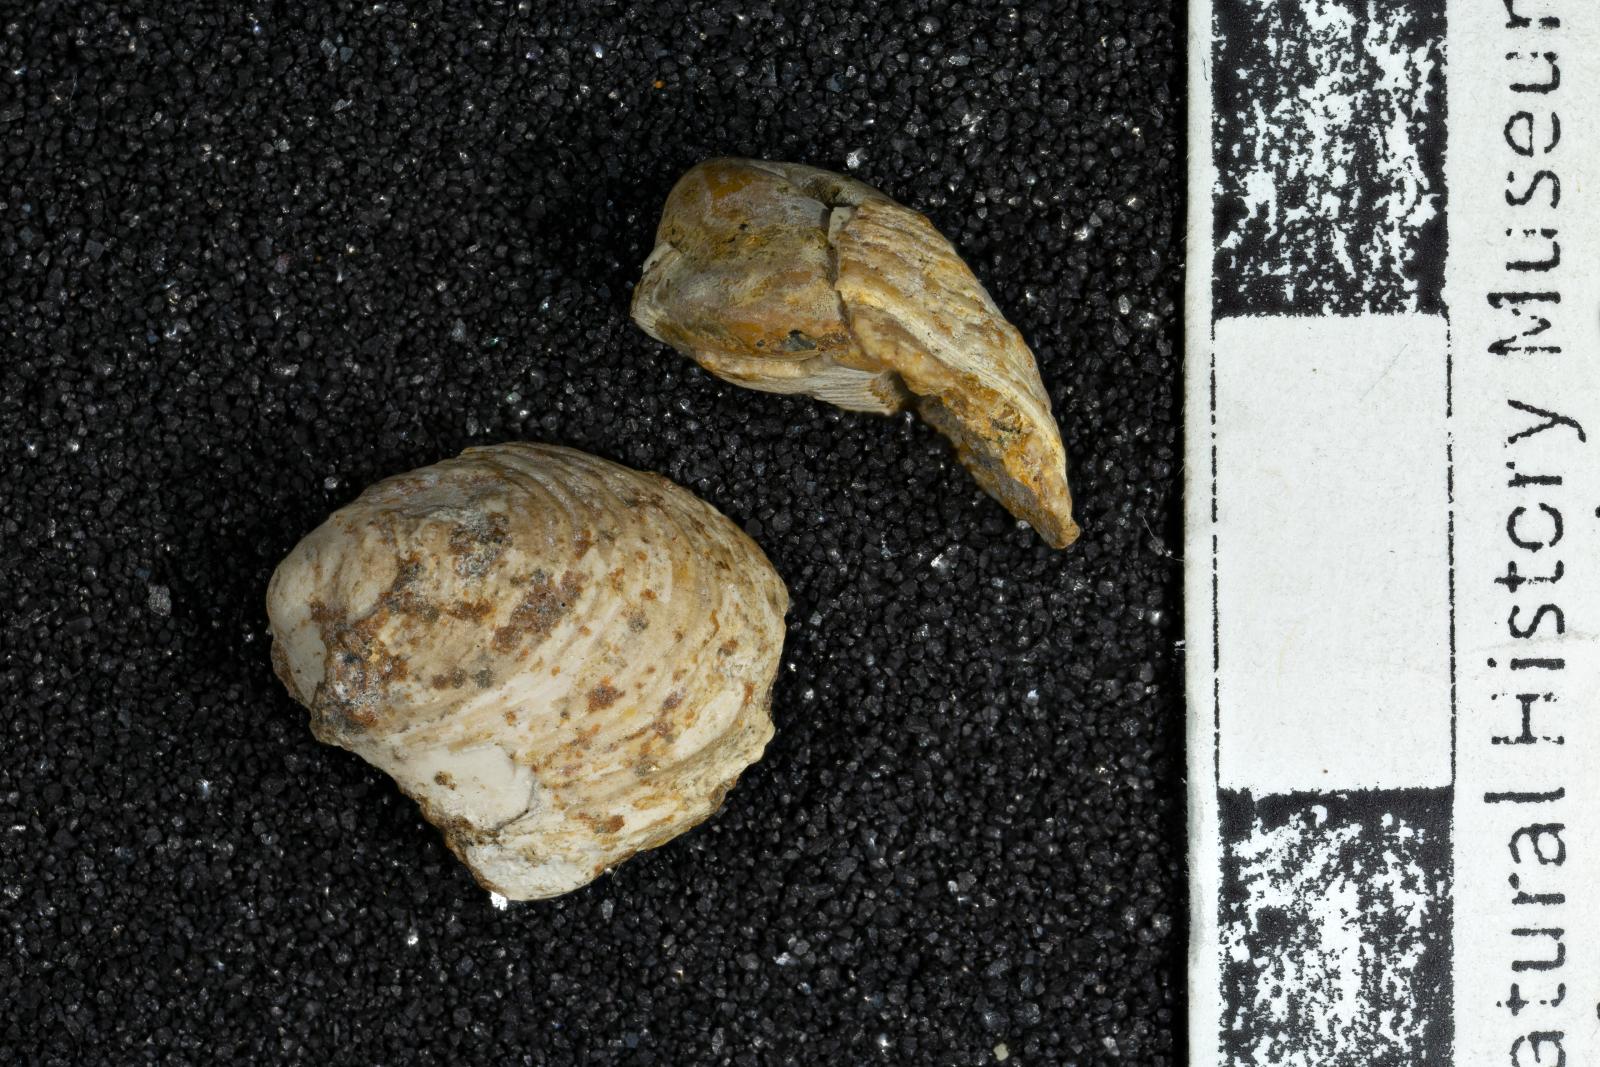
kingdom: Animalia
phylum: Mollusca
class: Gastropoda
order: Cycloneritida
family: Neritidae
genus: Neritina
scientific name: Neritina Nerita cuneata
